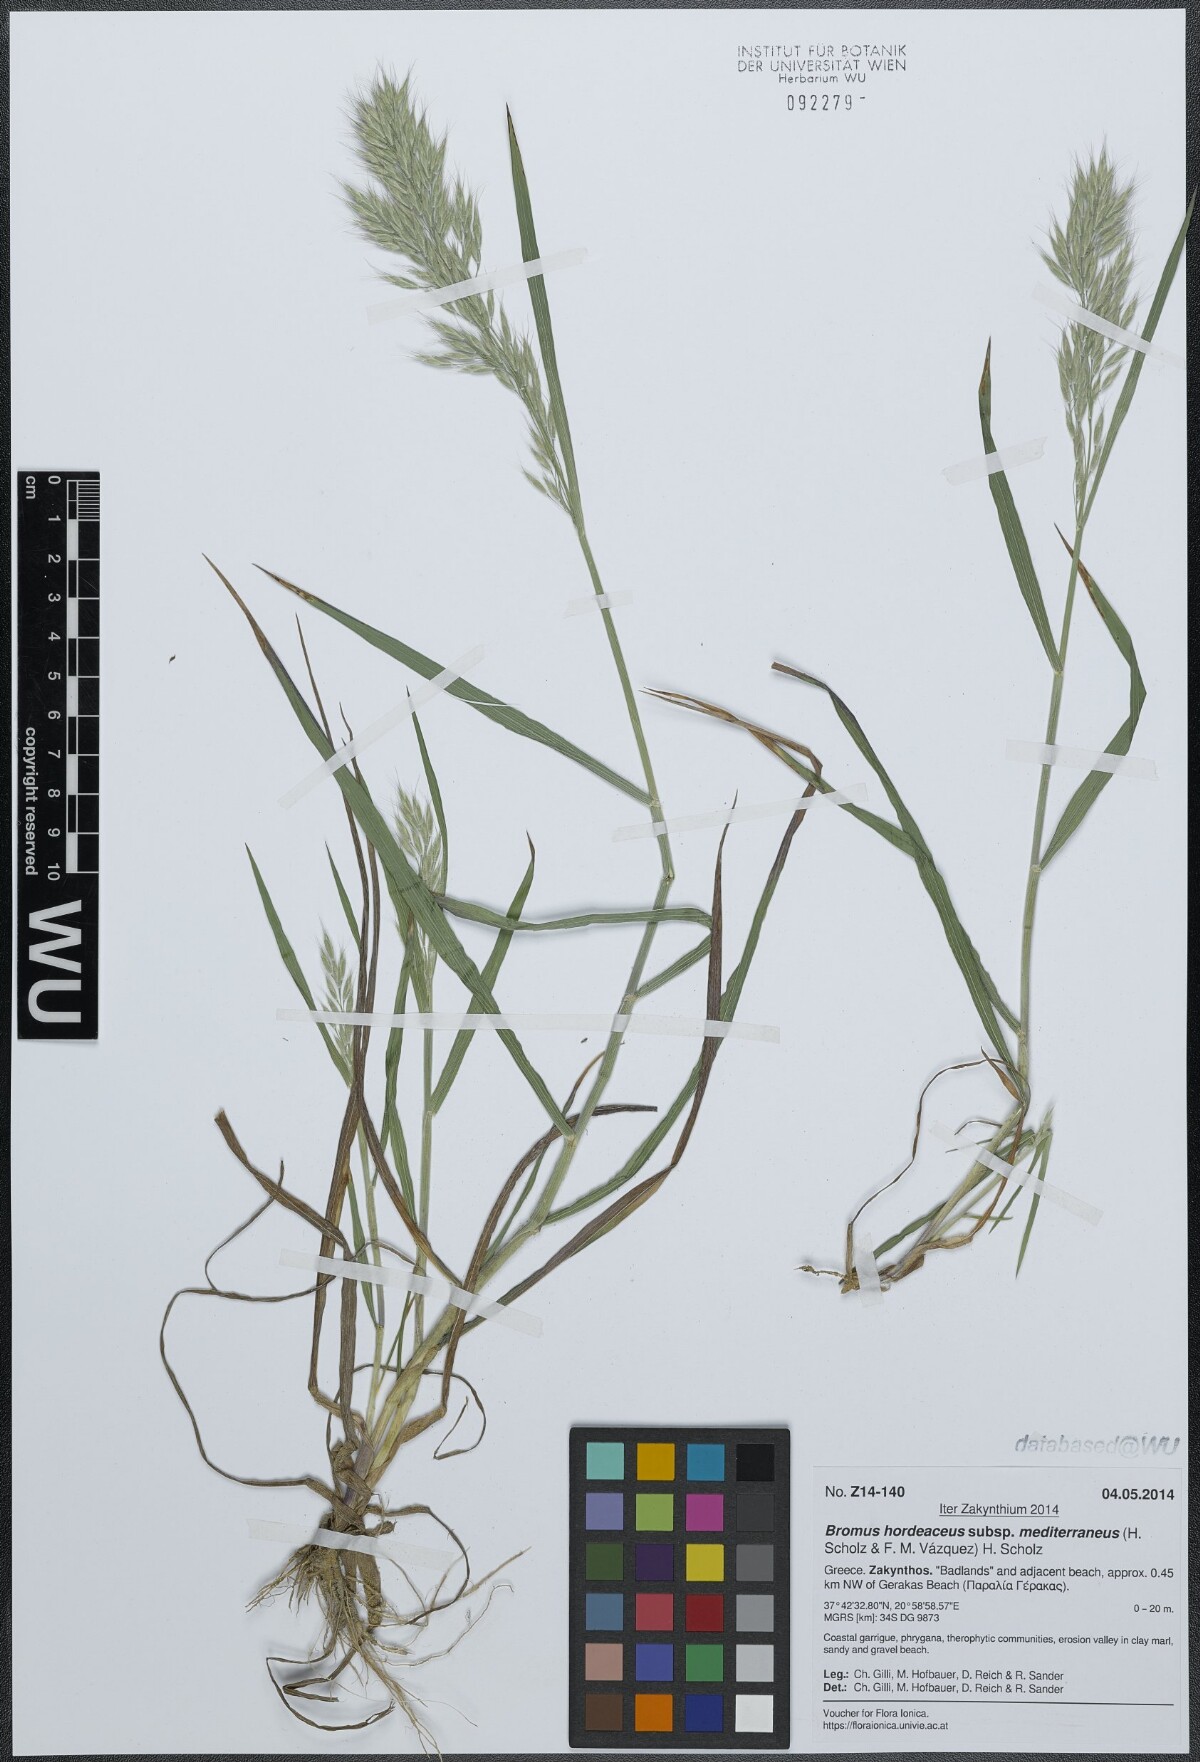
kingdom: Plantae
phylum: Tracheophyta
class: Liliopsida
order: Poales
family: Poaceae
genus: Bromus
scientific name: Bromus hordeaceus
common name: Soft brome
